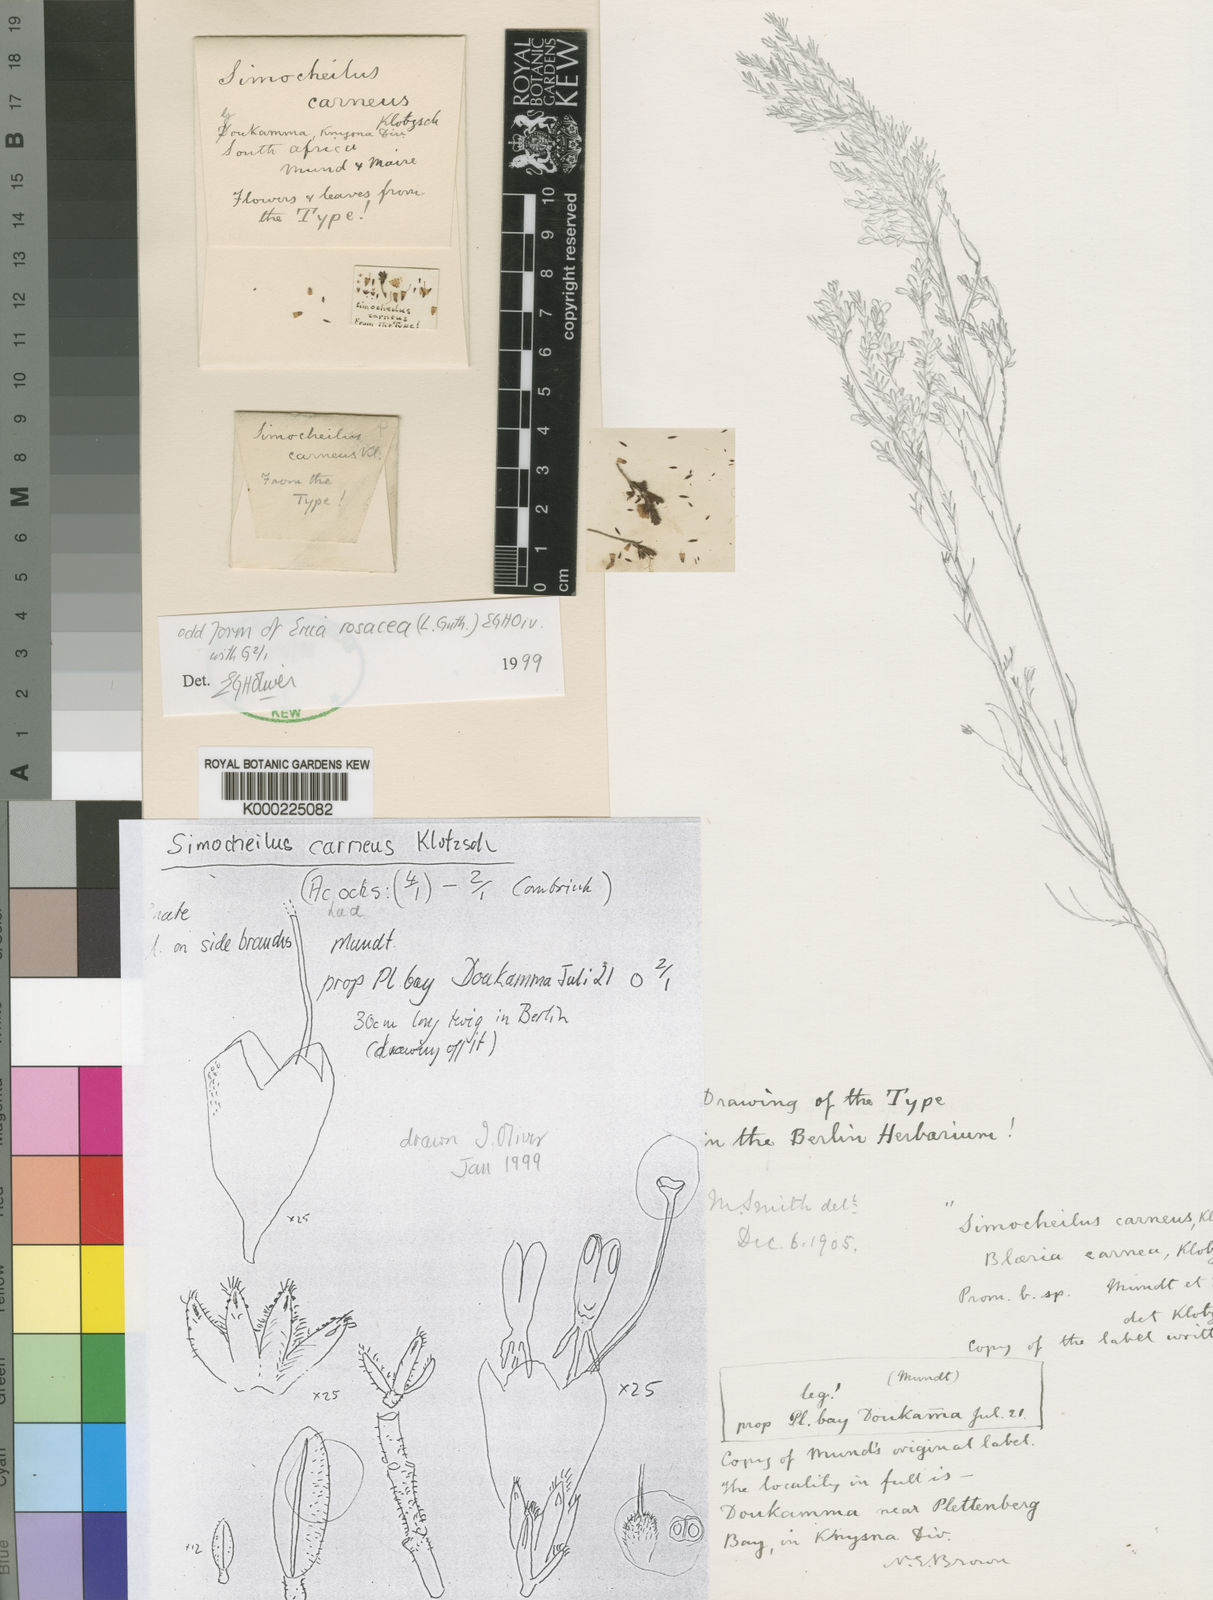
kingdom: Plantae
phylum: Tracheophyta
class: Magnoliopsida
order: Ericales
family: Ericaceae
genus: Erica
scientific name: Erica carnea
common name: Winter heath
